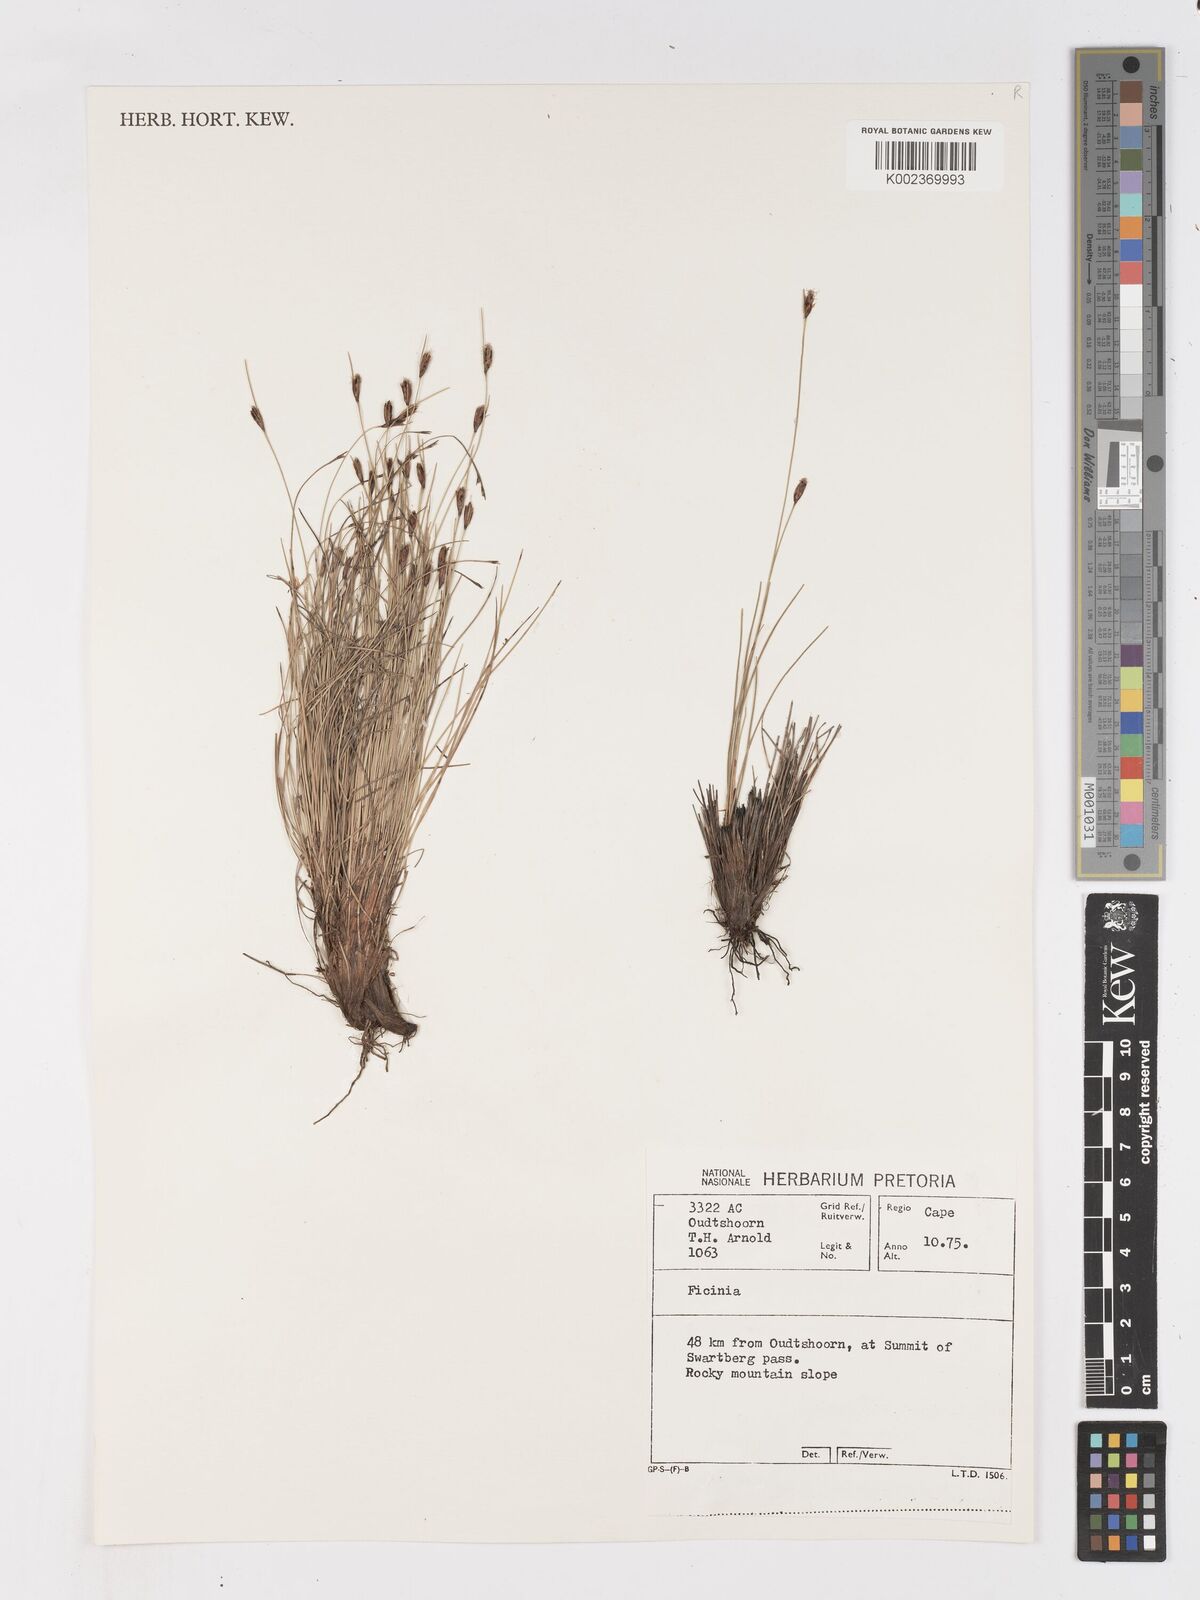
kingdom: Plantae
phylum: Tracheophyta
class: Liliopsida
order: Poales
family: Cyperaceae
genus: Ficinia
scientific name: Ficinia zeyheri
